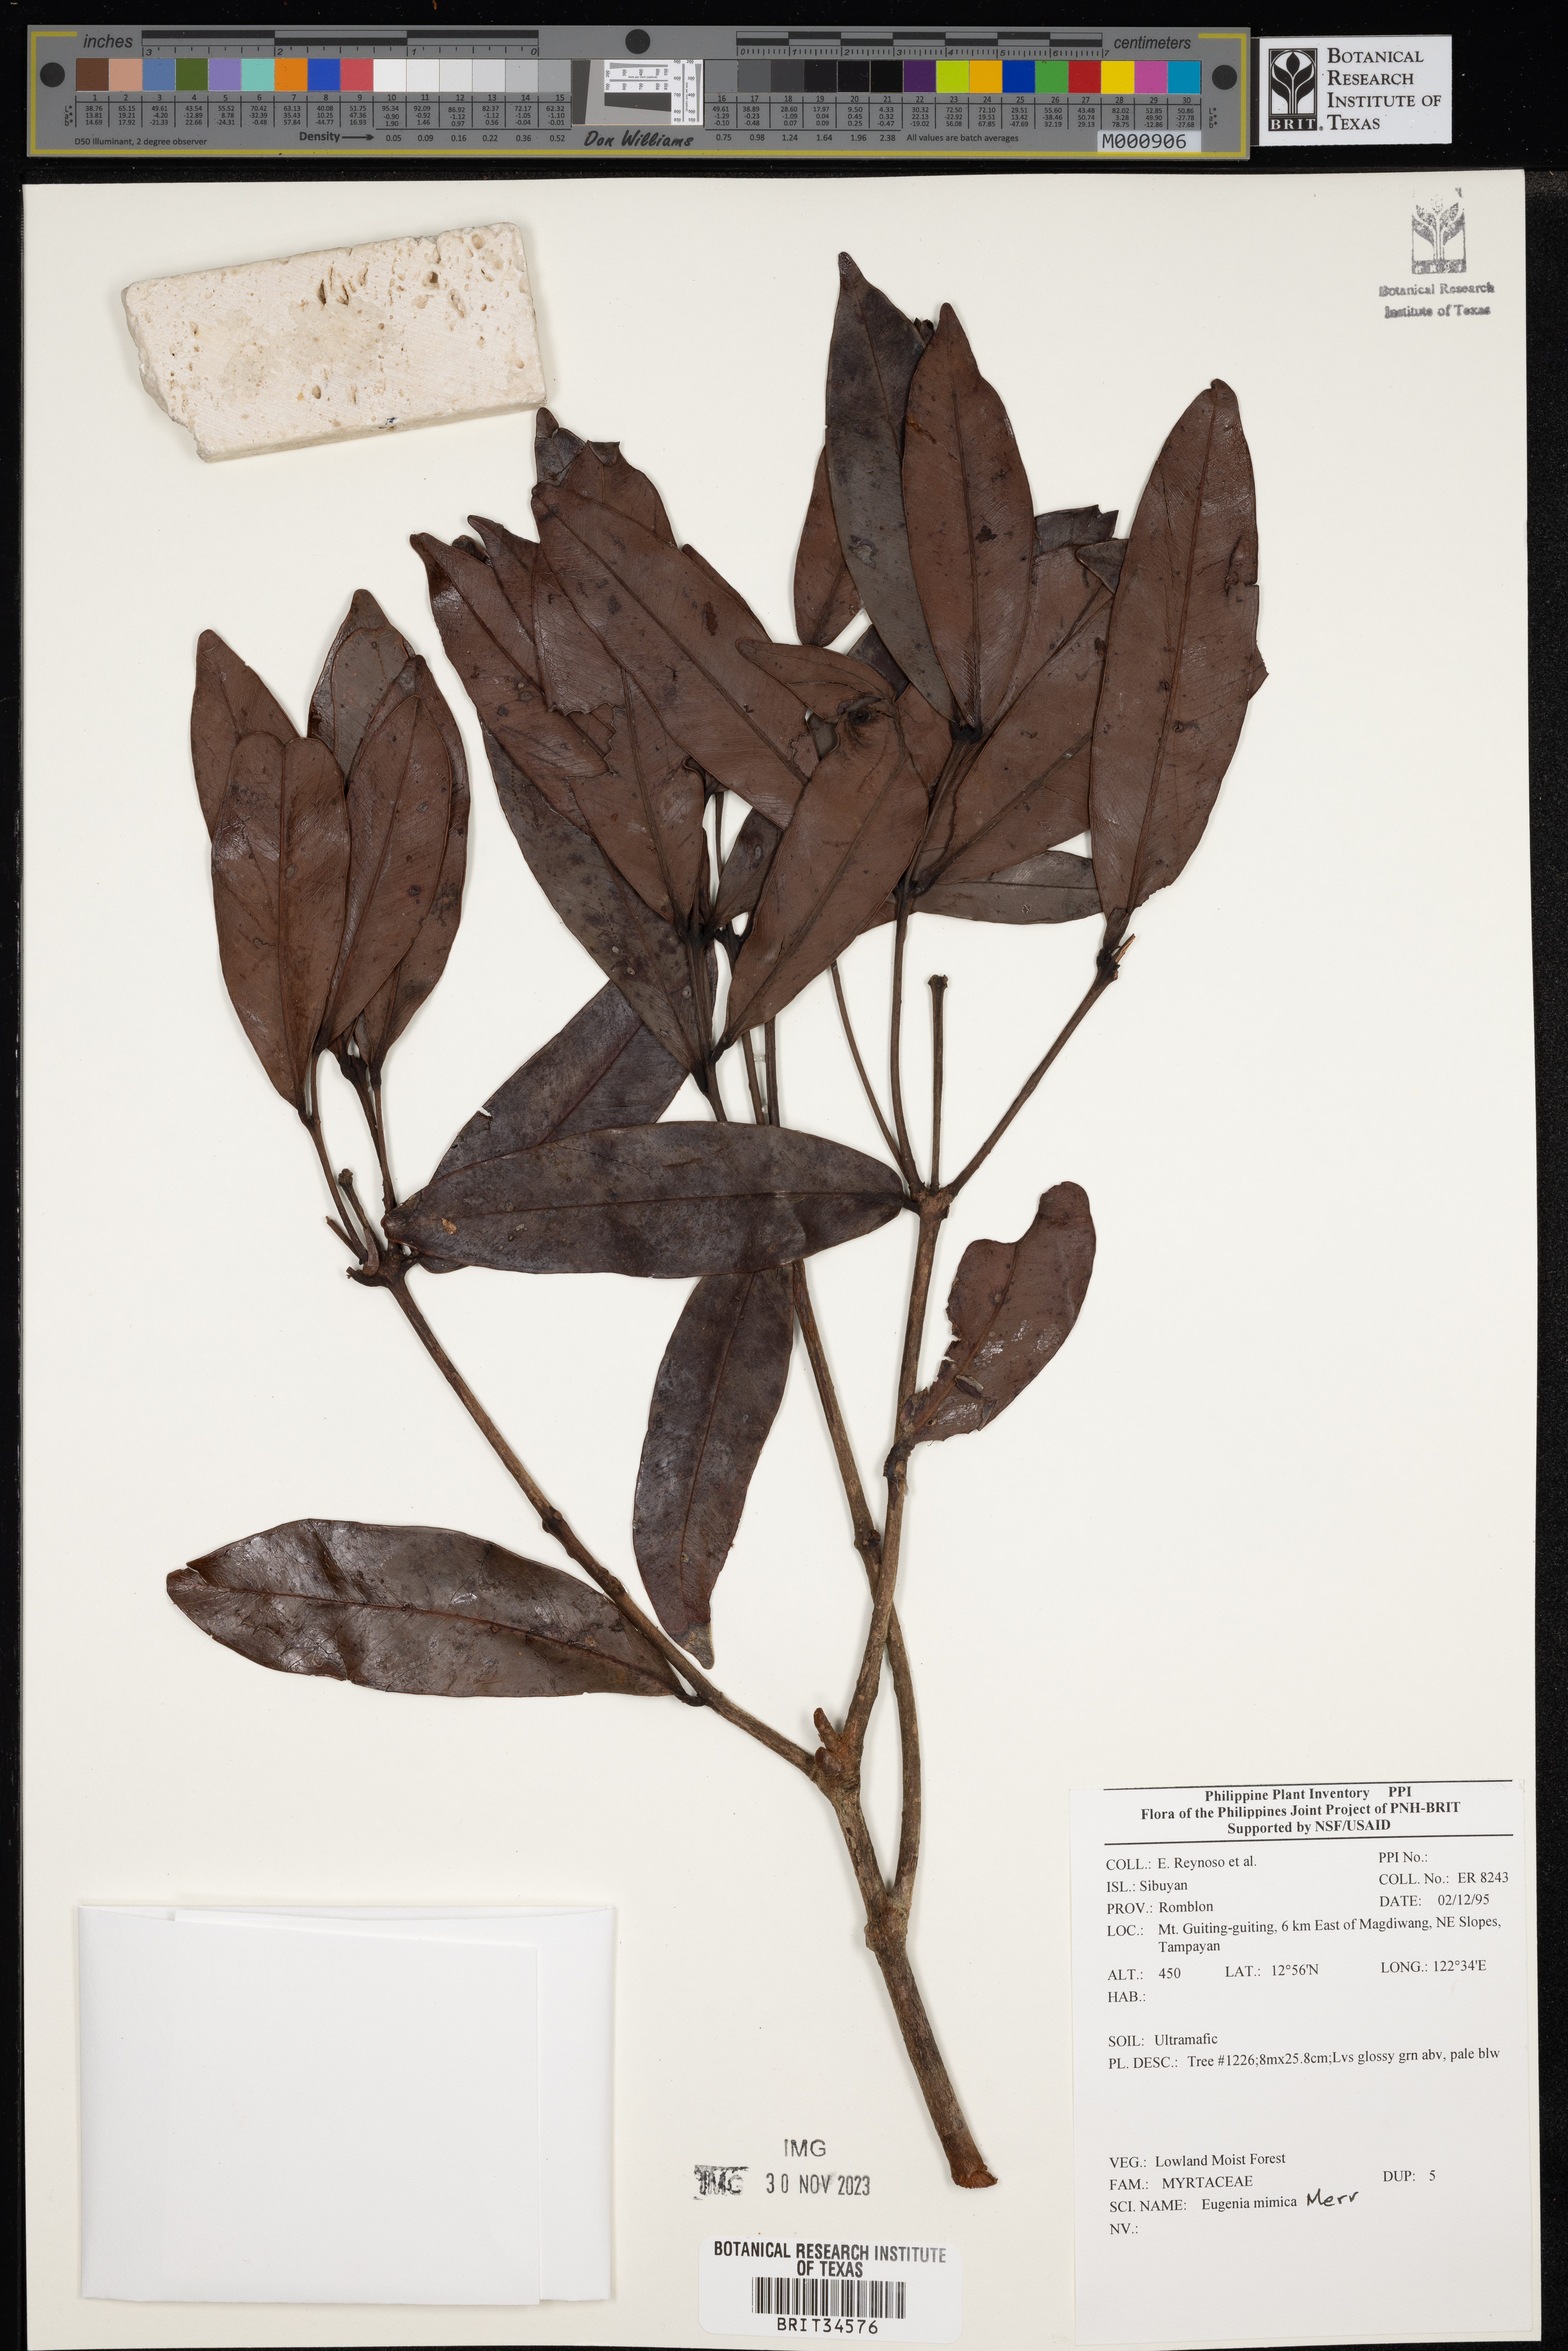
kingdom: Plantae
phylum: Tracheophyta
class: Magnoliopsida
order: Myrtales
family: Myrtaceae
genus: Eugenia
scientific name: Eugenia
